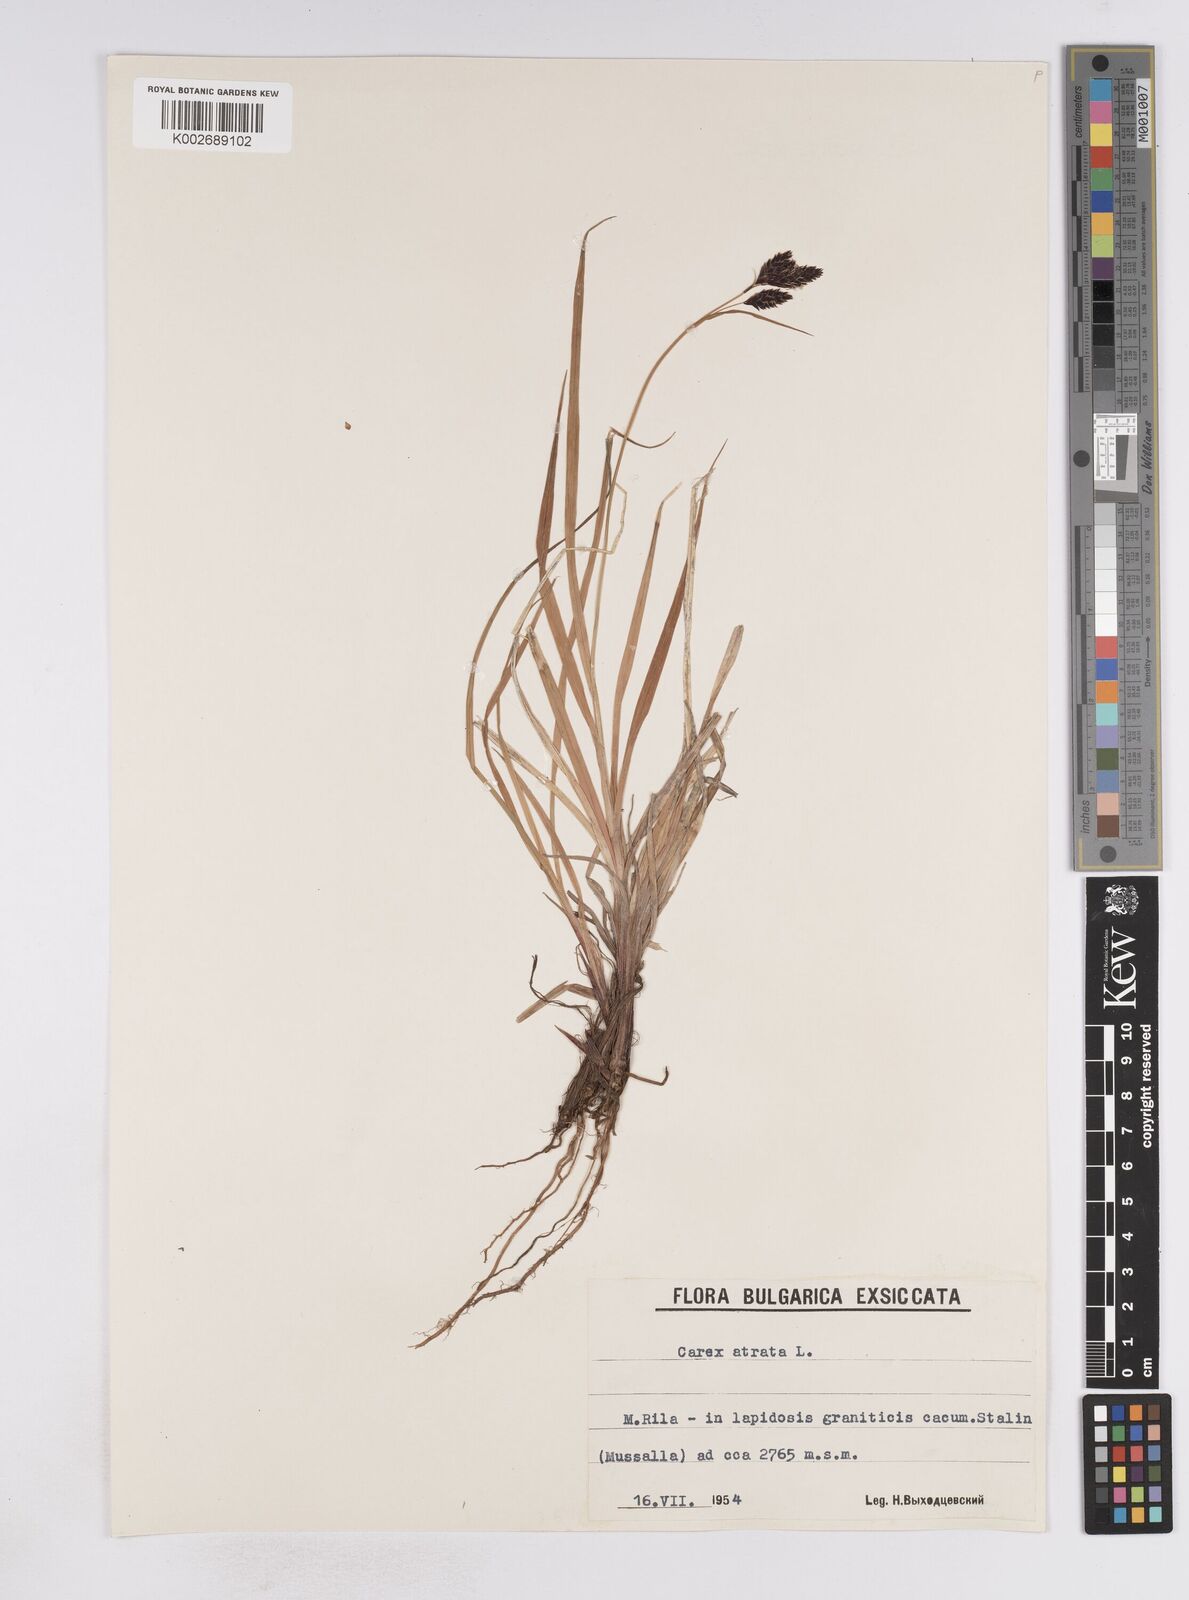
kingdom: Plantae
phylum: Tracheophyta
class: Liliopsida
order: Poales
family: Cyperaceae
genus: Carex
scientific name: Carex atrata
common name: Black alpine sedge
